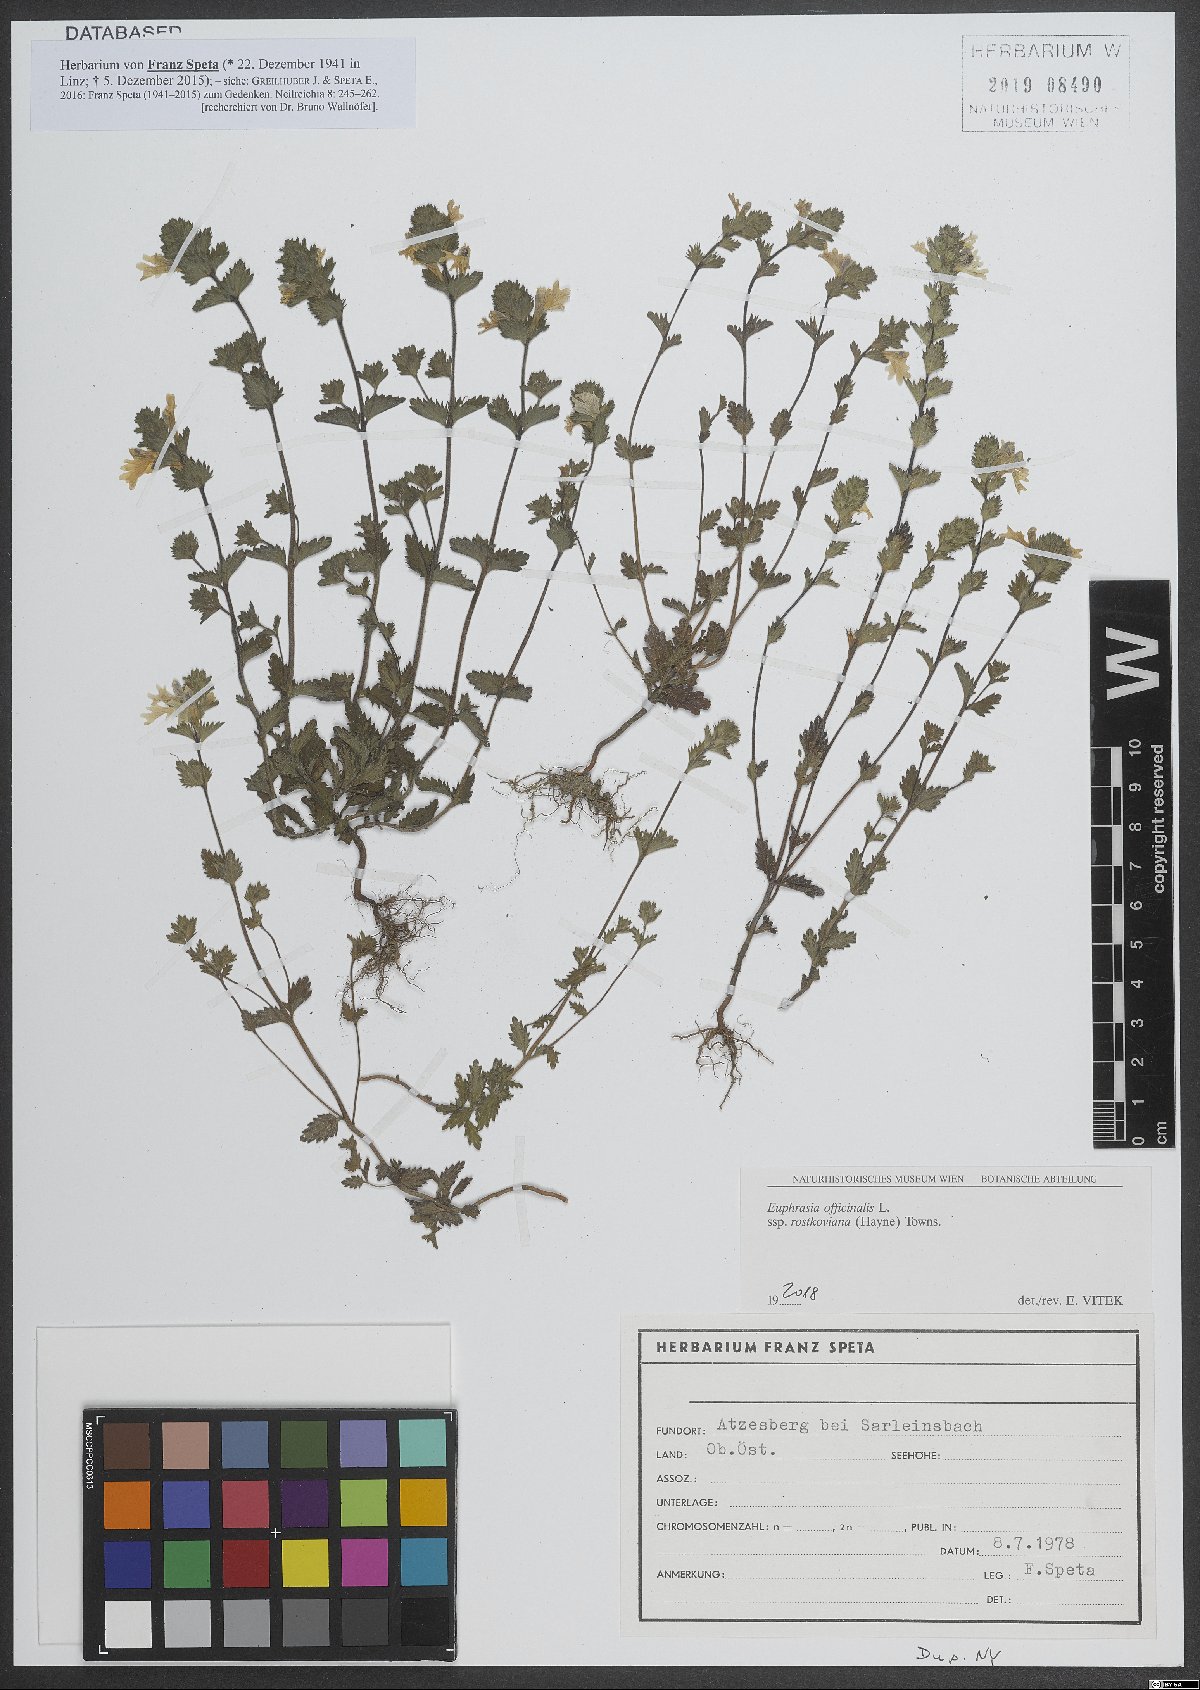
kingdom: Plantae
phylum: Tracheophyta
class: Magnoliopsida
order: Lamiales
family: Orobanchaceae
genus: Euphrasia
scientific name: Euphrasia officinalis
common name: Eyebright
